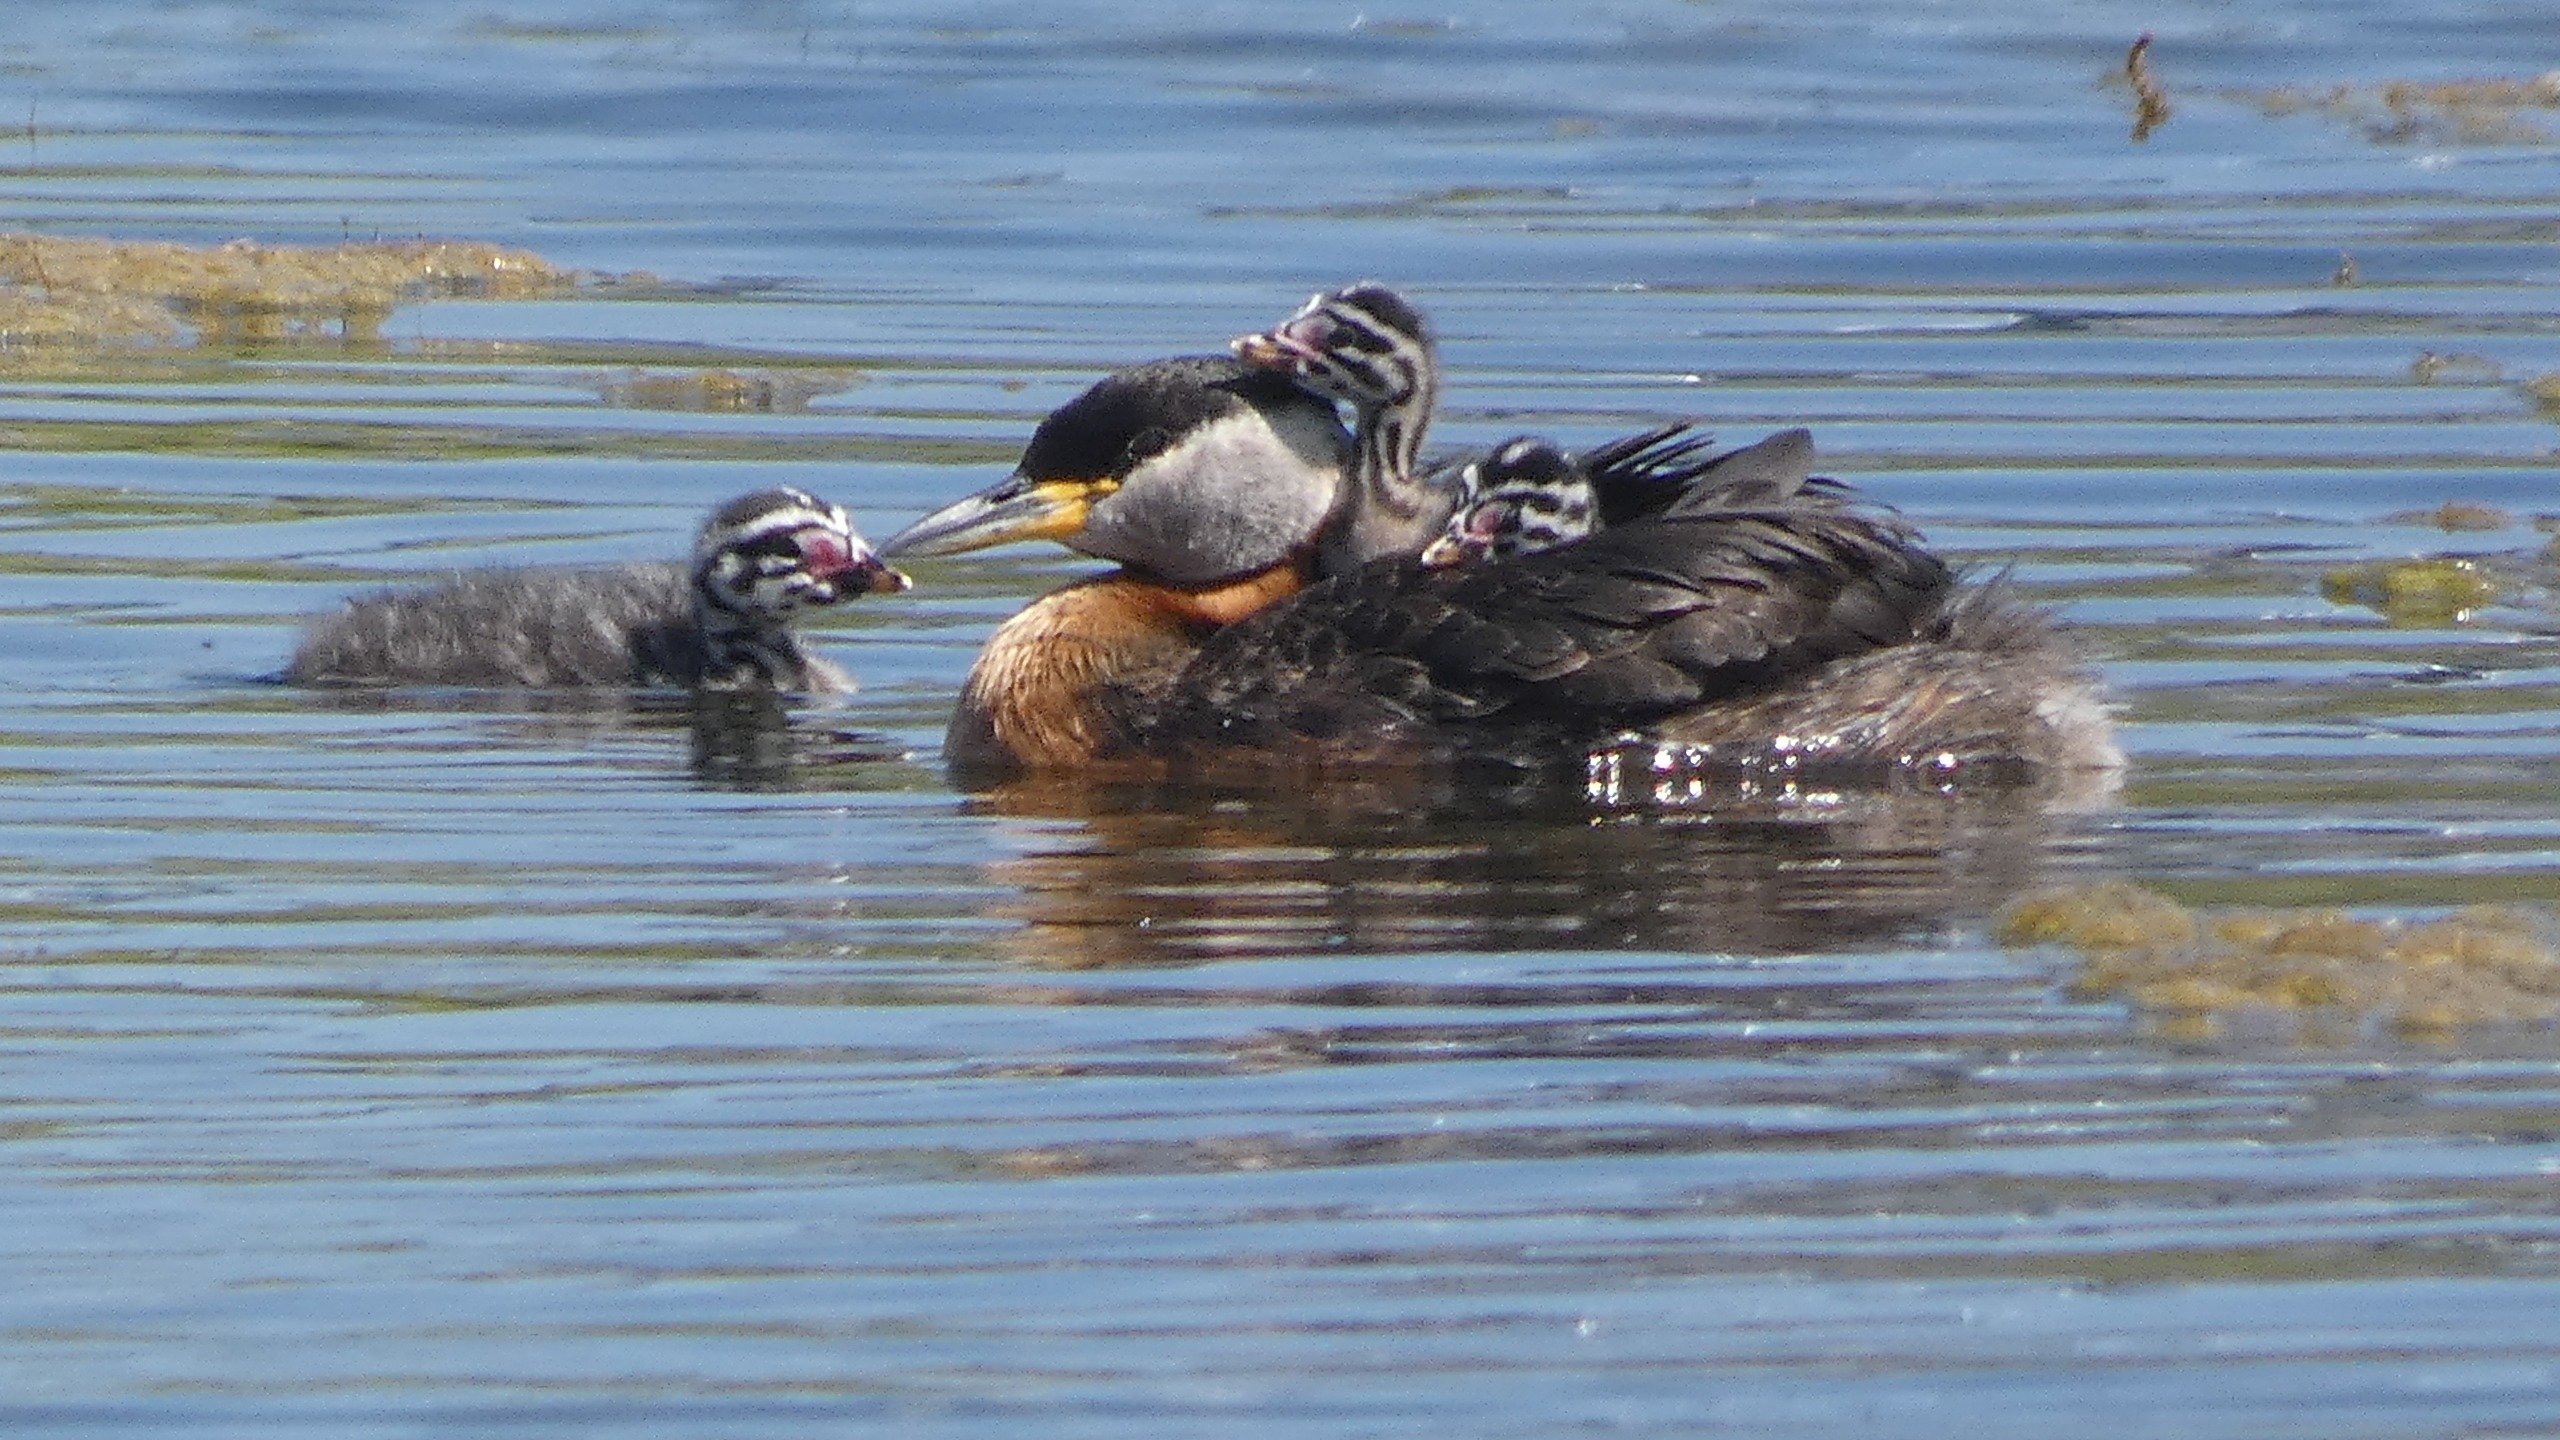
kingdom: Animalia
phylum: Chordata
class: Aves
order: Podicipediformes
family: Podicipedidae
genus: Podiceps
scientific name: Podiceps grisegena
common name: Gråstrubet lappedykker
